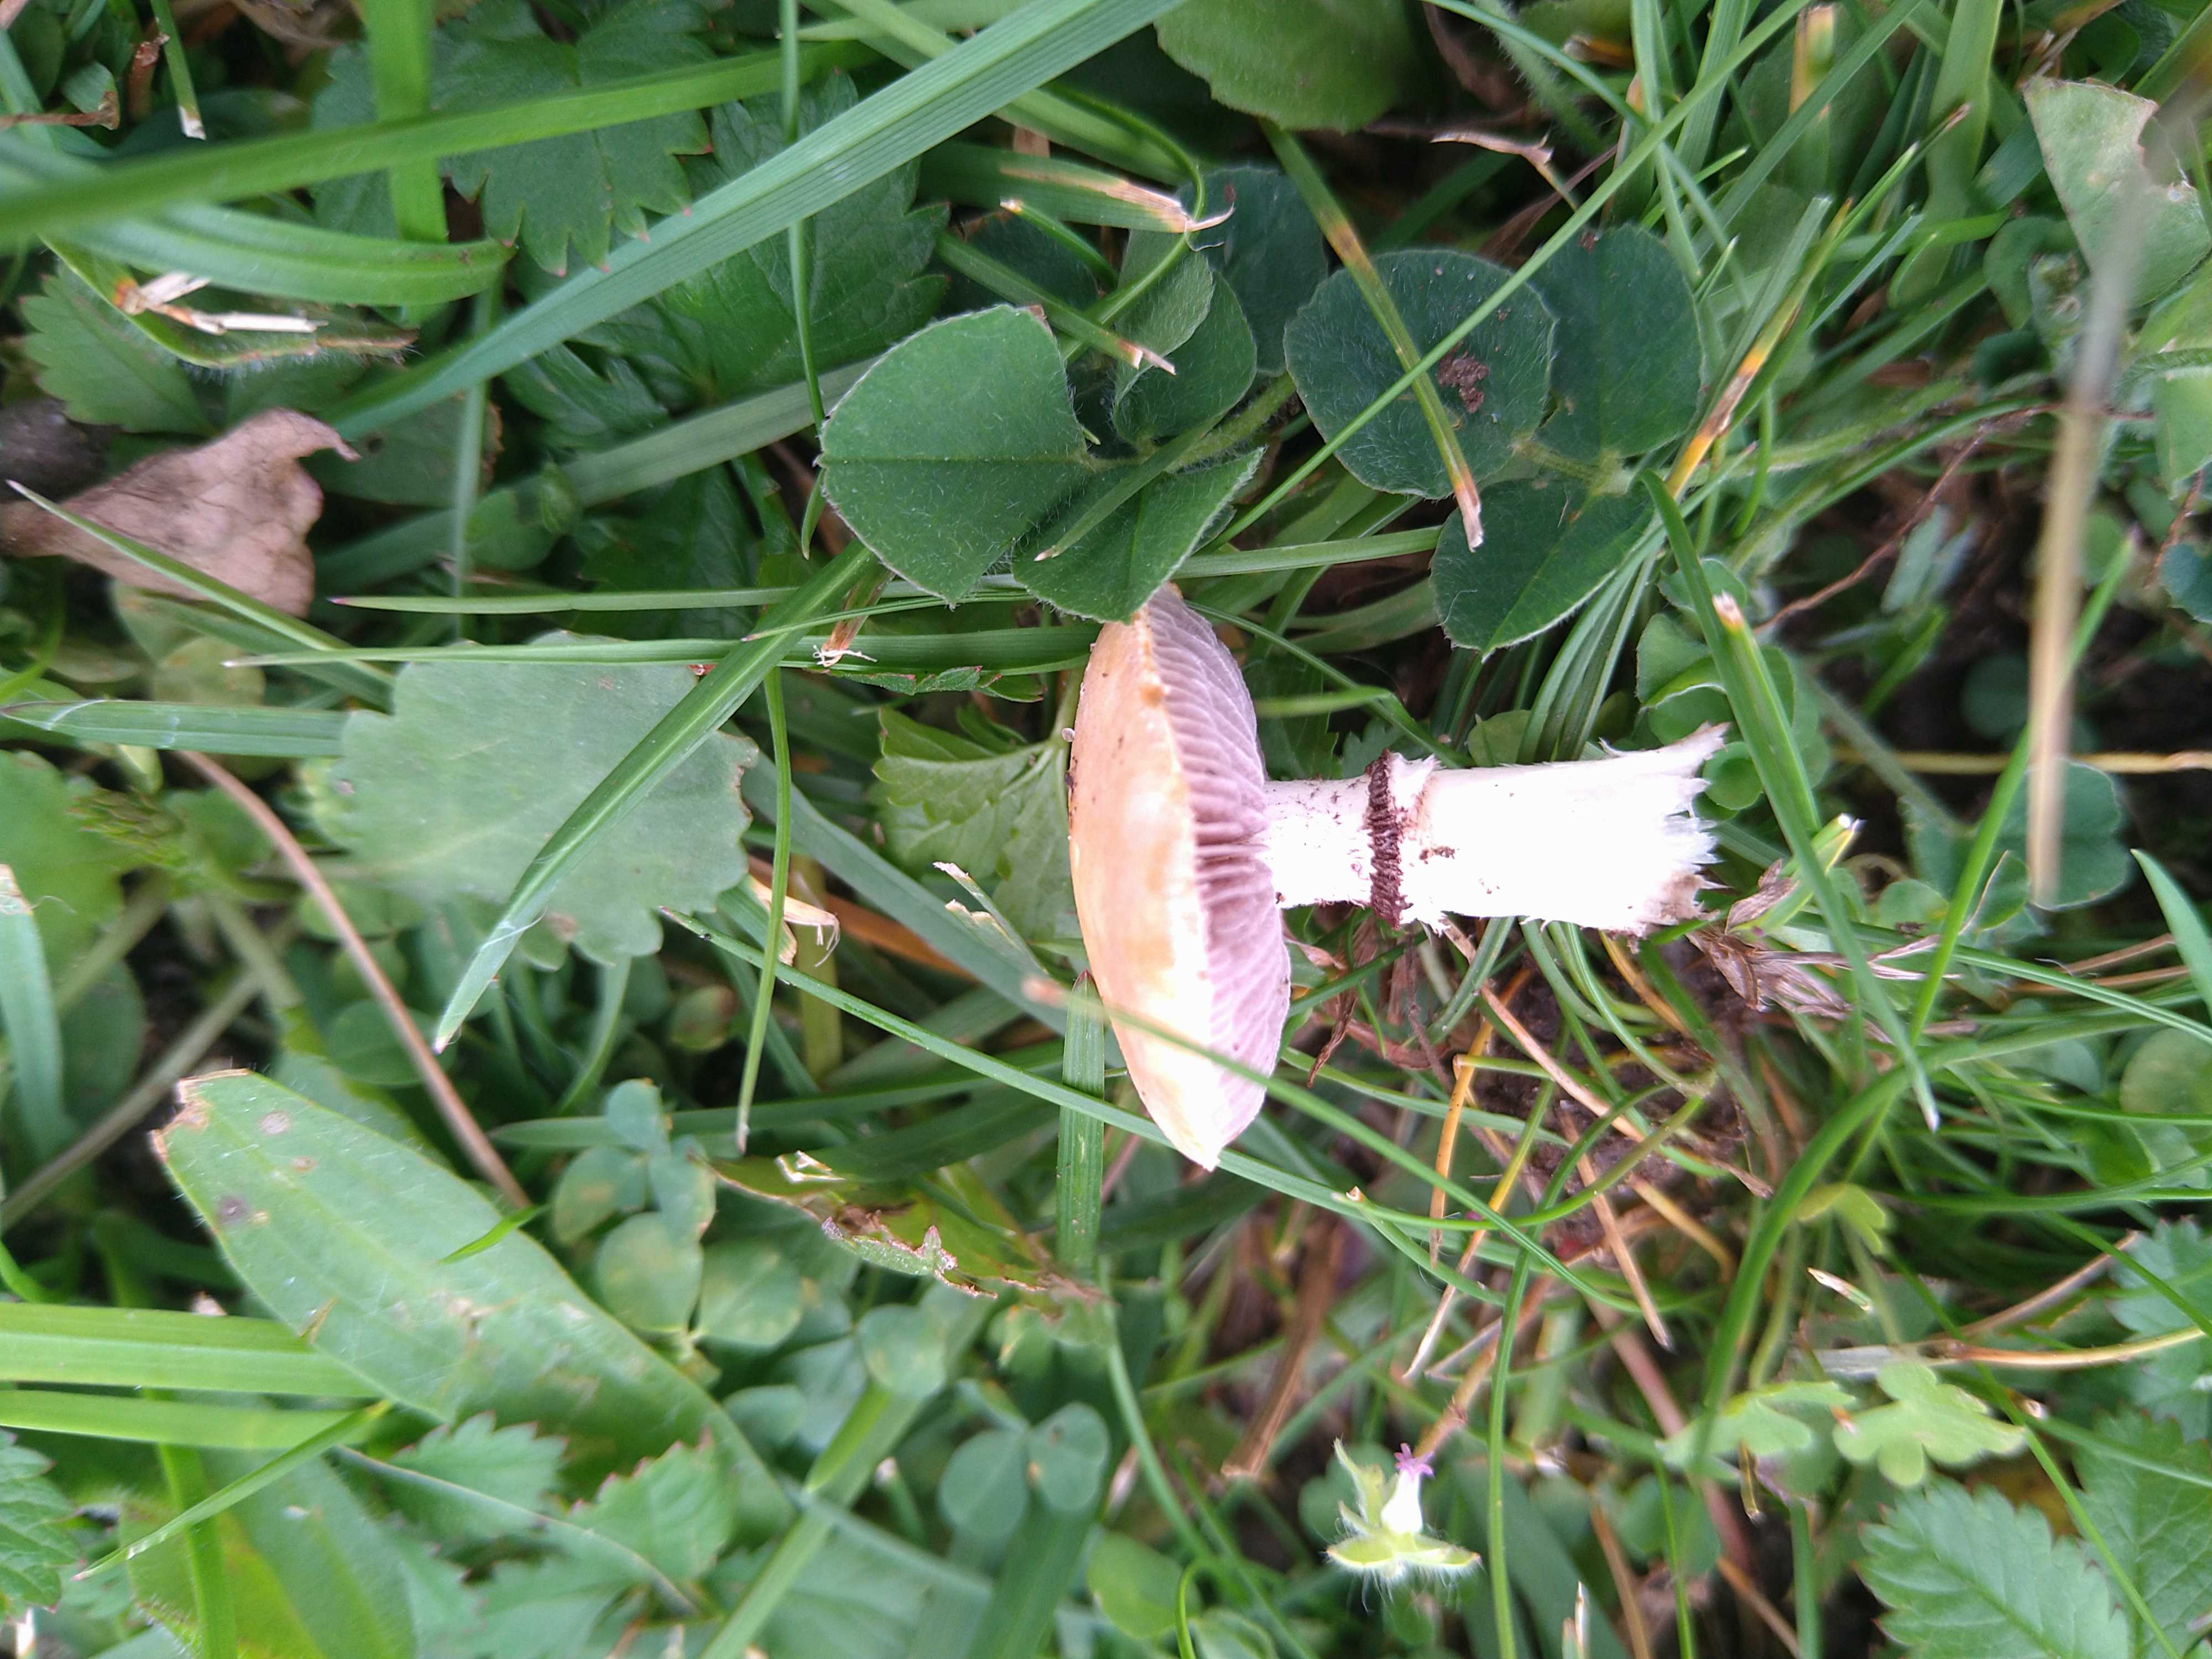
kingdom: Fungi
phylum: Basidiomycota
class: Agaricomycetes
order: Agaricales
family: Hymenogastraceae
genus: Psilocybe
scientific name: Psilocybe coronilla
